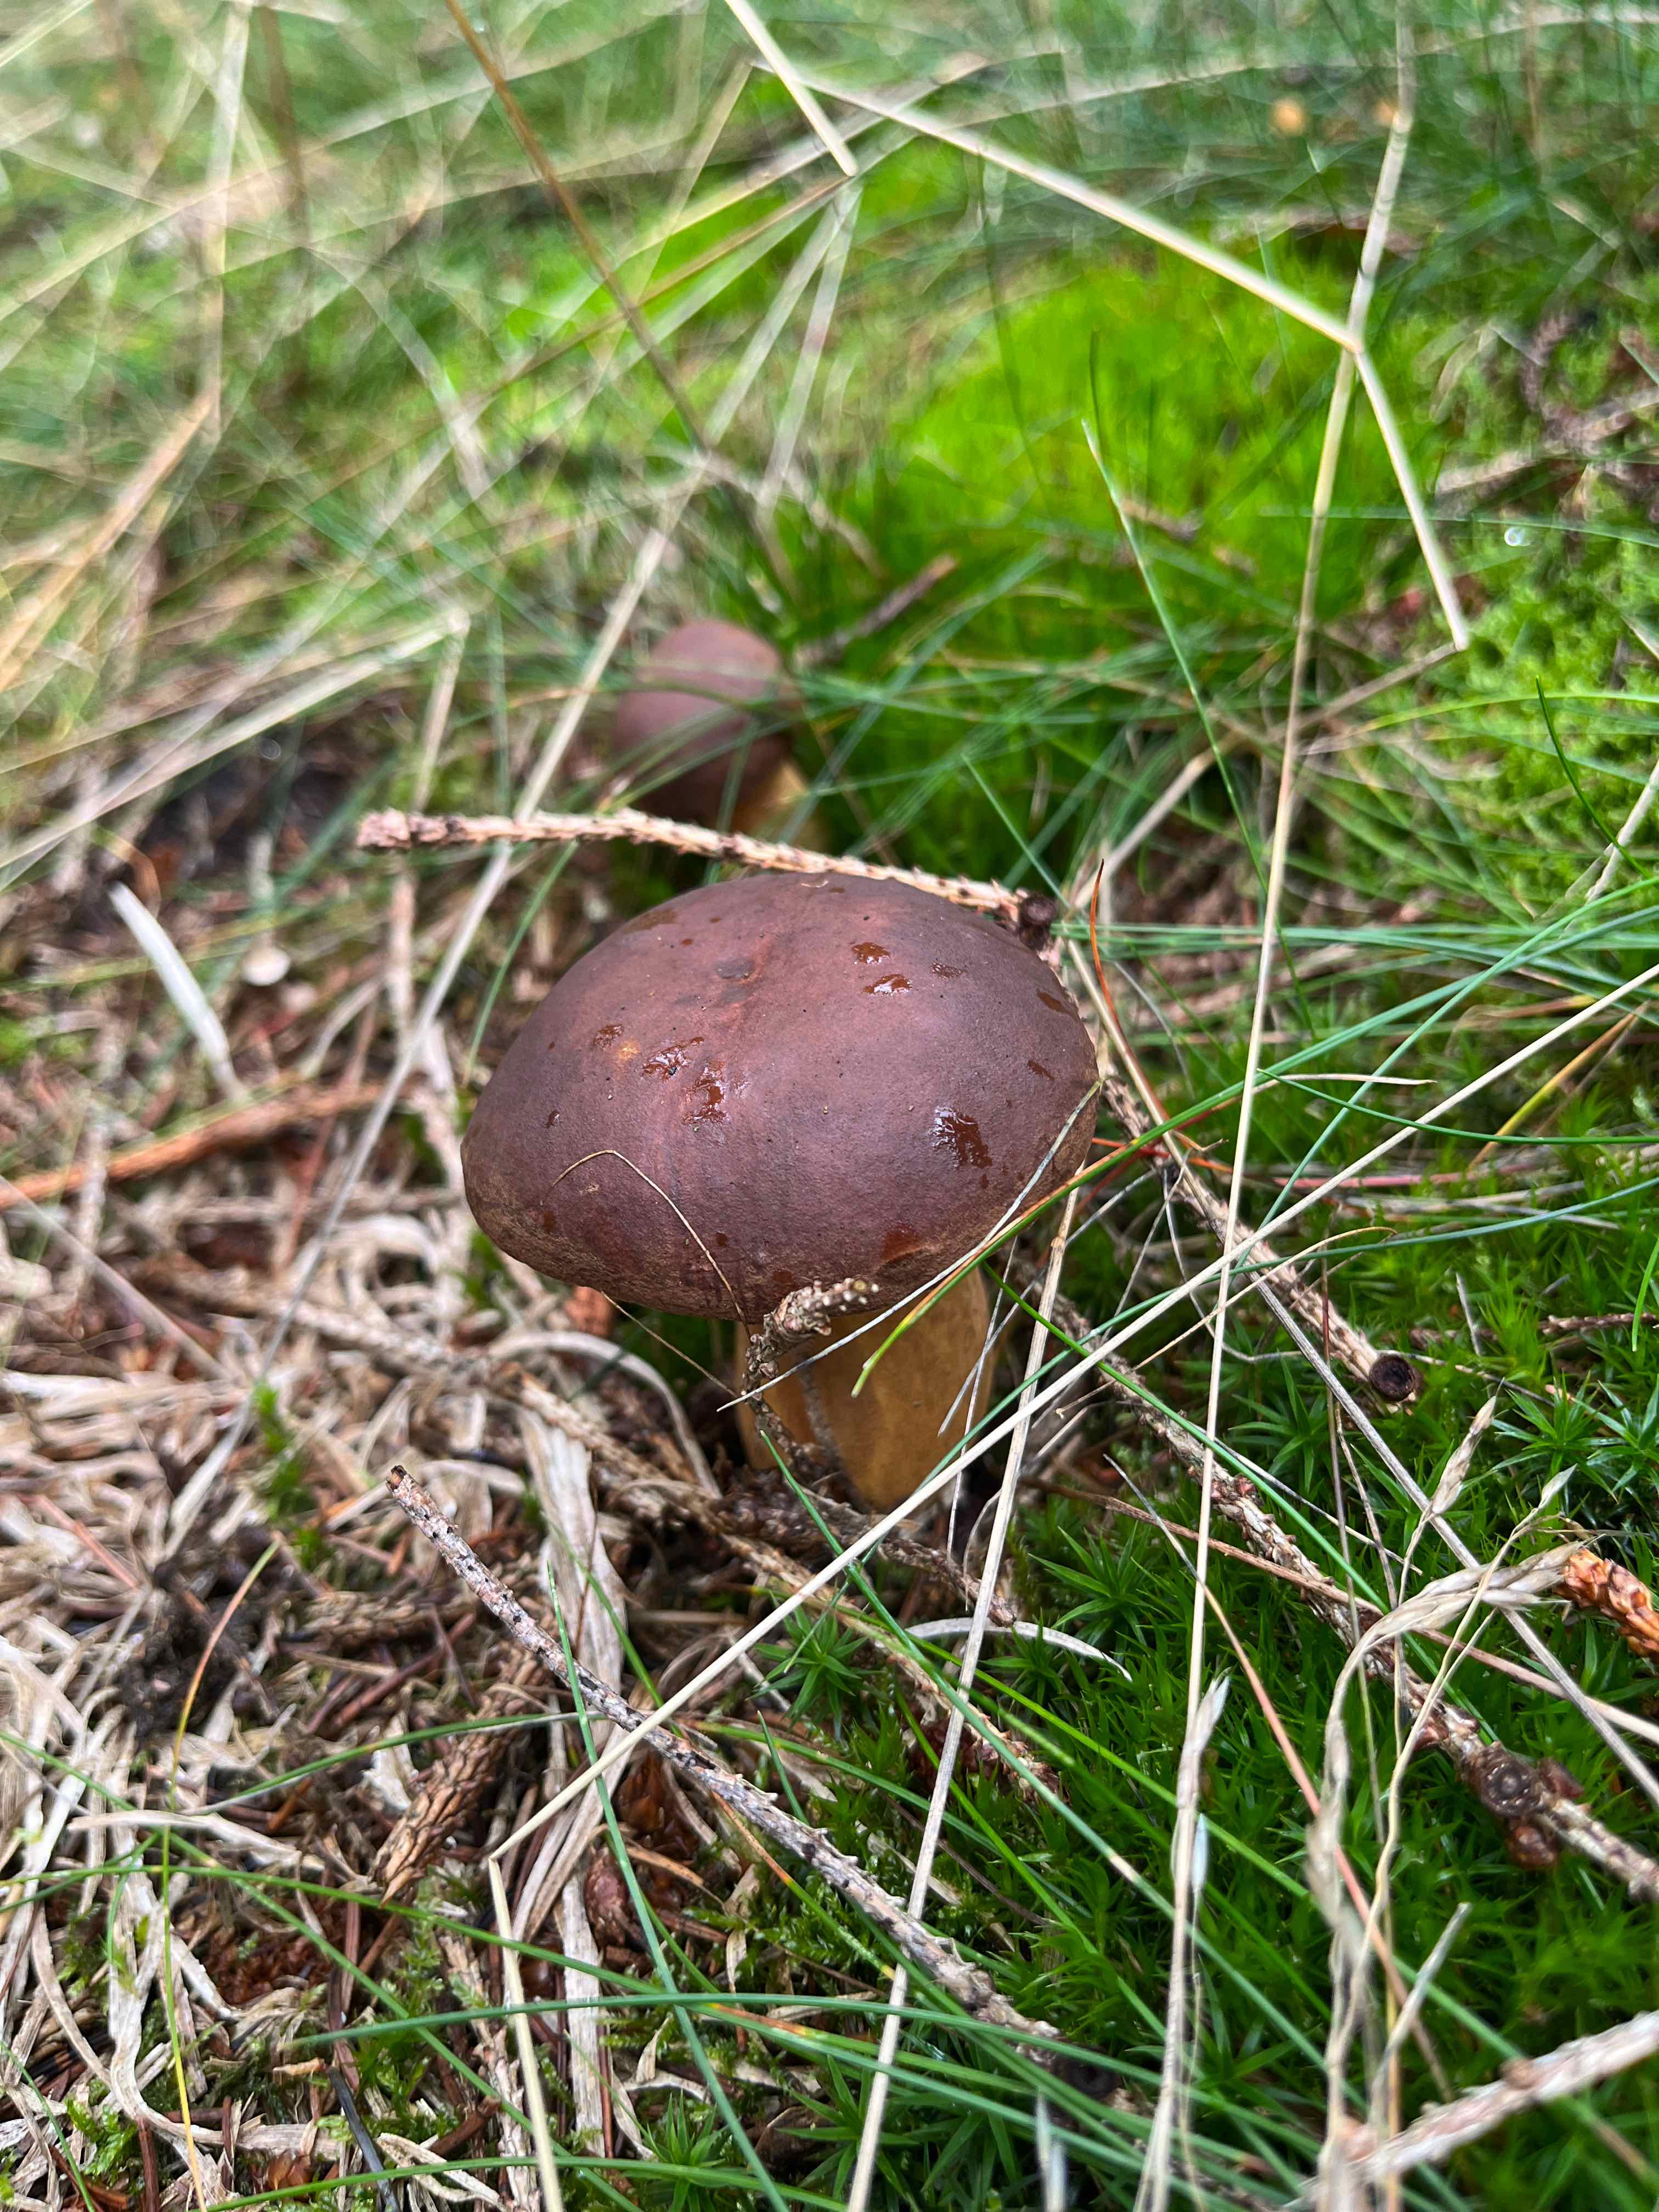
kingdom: Fungi
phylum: Basidiomycota
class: Agaricomycetes
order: Boletales
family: Boletaceae
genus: Imleria
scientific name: Imleria badia
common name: brunstokket rørhat
